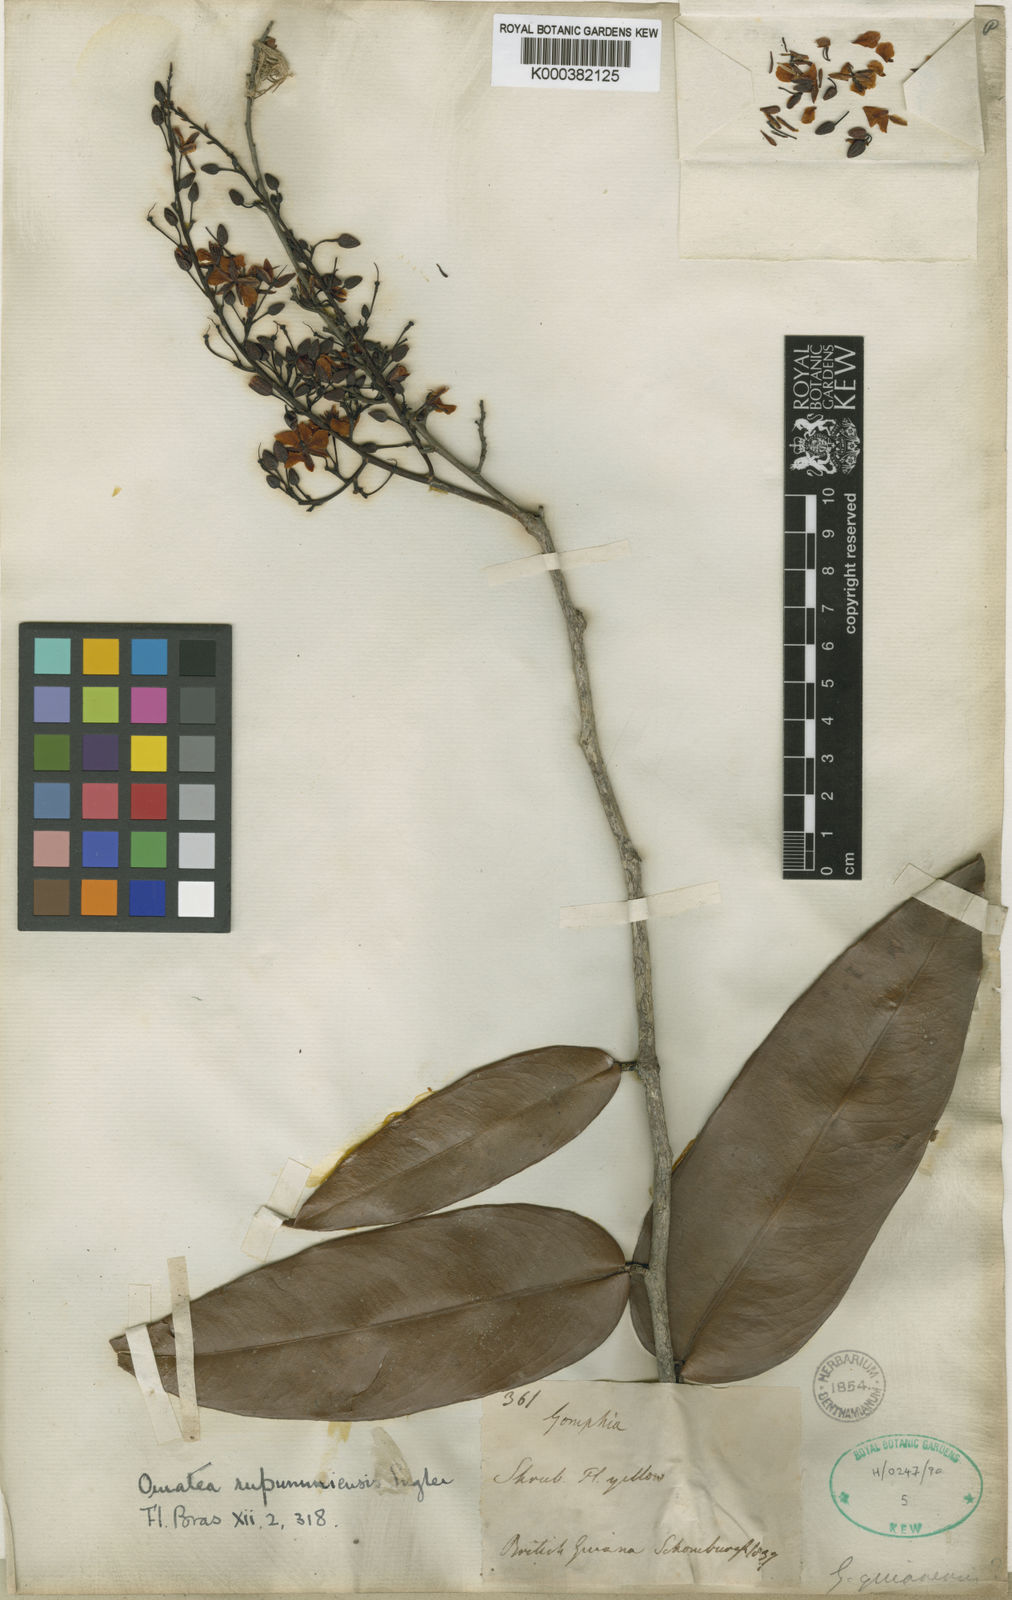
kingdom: Plantae
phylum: Tracheophyta
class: Magnoliopsida
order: Malpighiales
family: Ochnaceae
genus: Ouratea
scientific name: Ouratea rupununiensis
